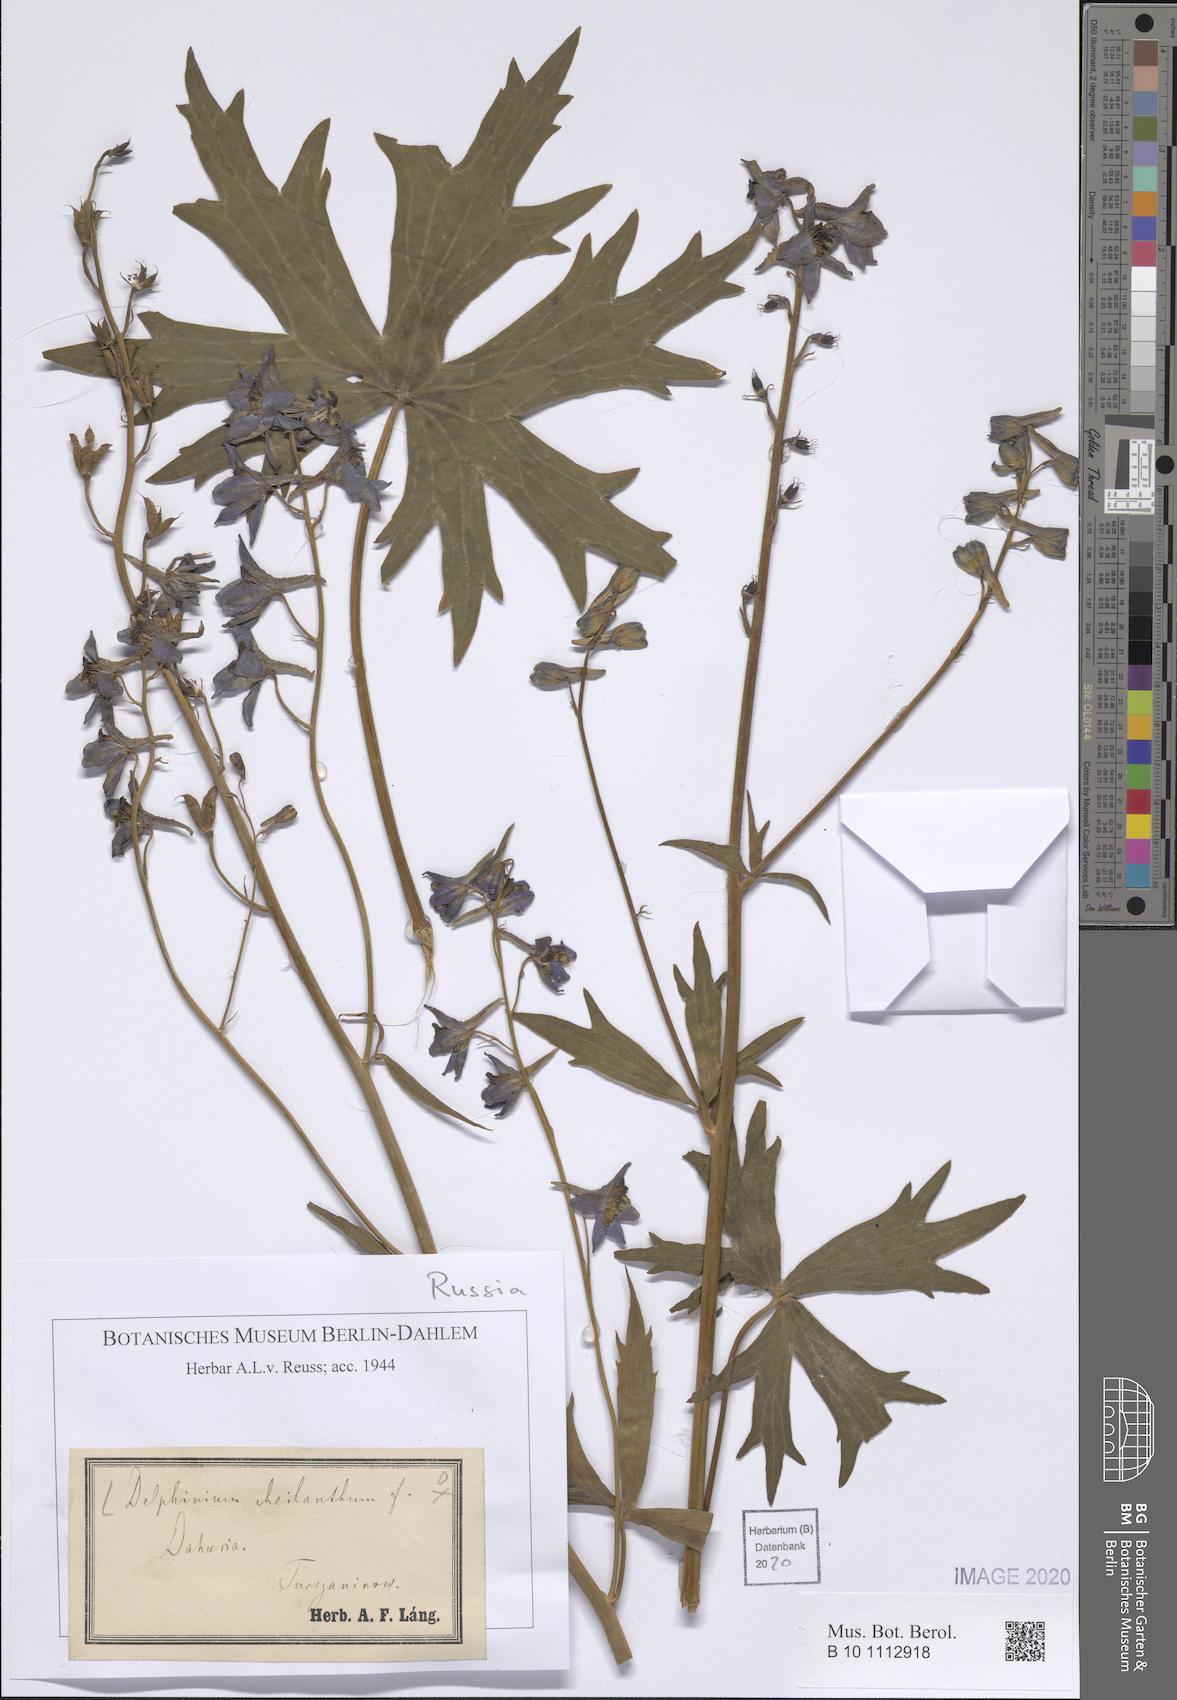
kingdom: Plantae
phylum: Tracheophyta
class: Magnoliopsida
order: Ranunculales
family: Ranunculaceae
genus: Delphinium
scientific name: Delphinium cheilanthum
